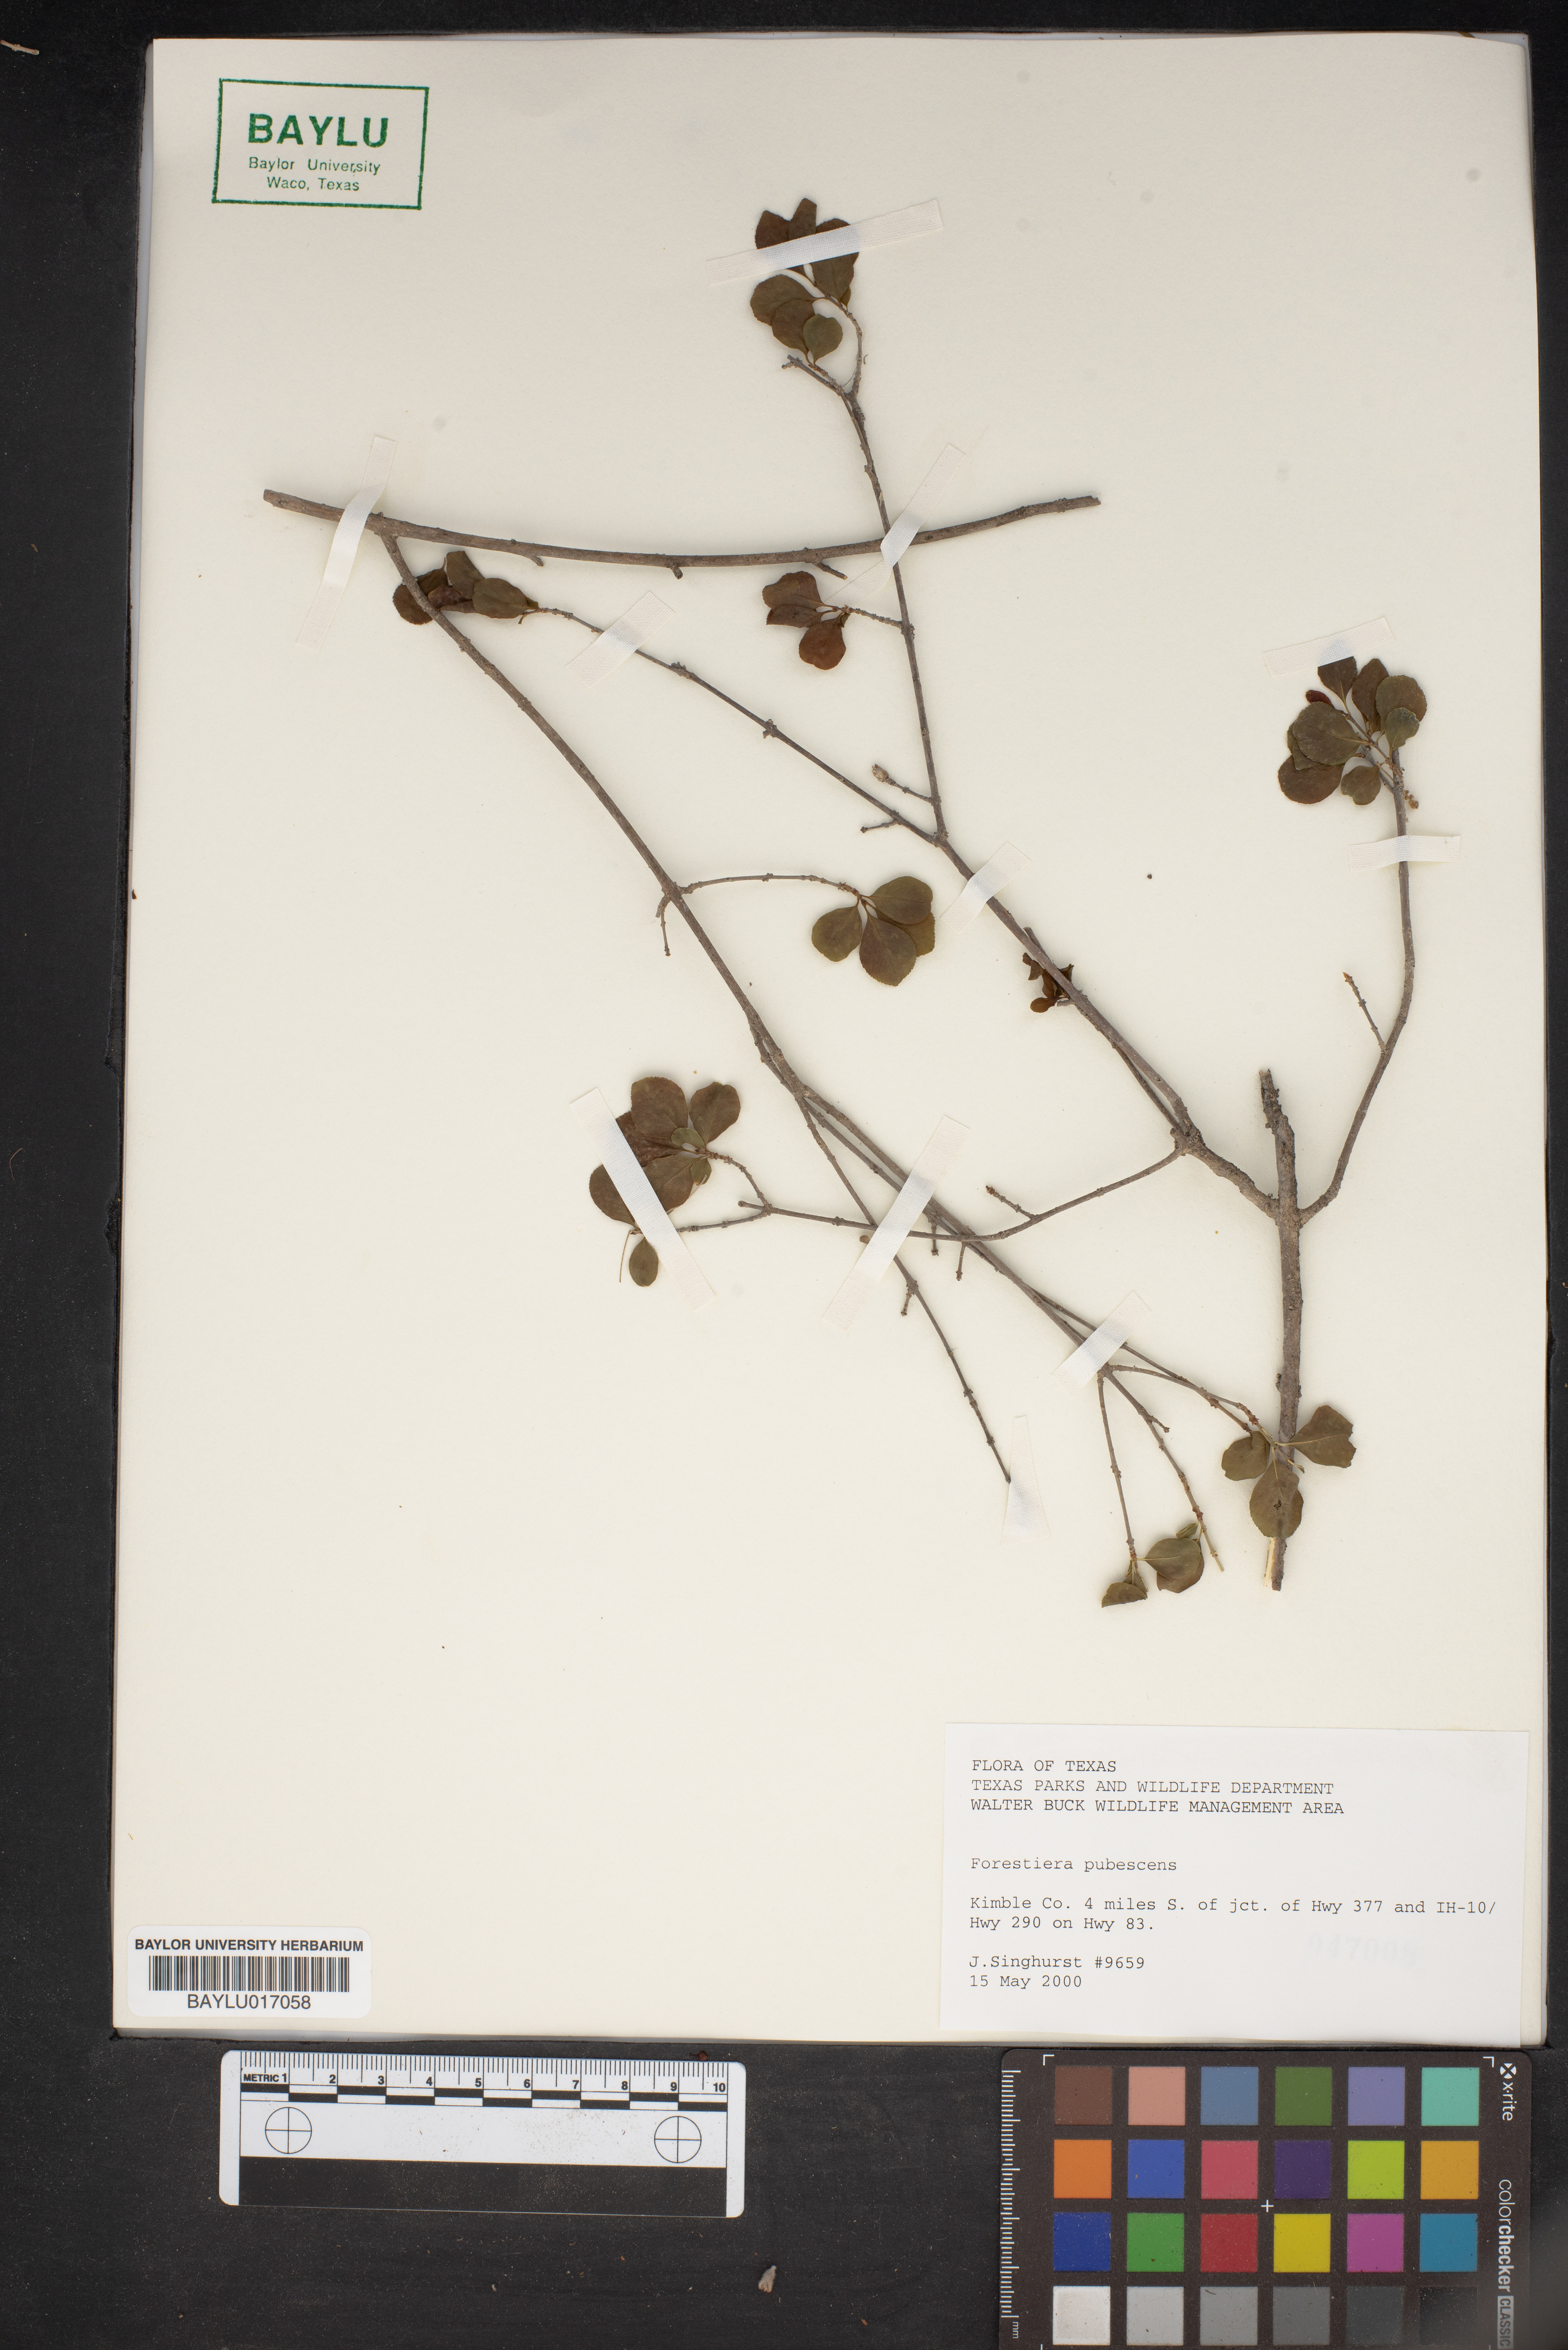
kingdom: Plantae
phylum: Tracheophyta
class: Magnoliopsida
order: Lamiales
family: Oleaceae
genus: Forestiera
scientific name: Forestiera pubescens
